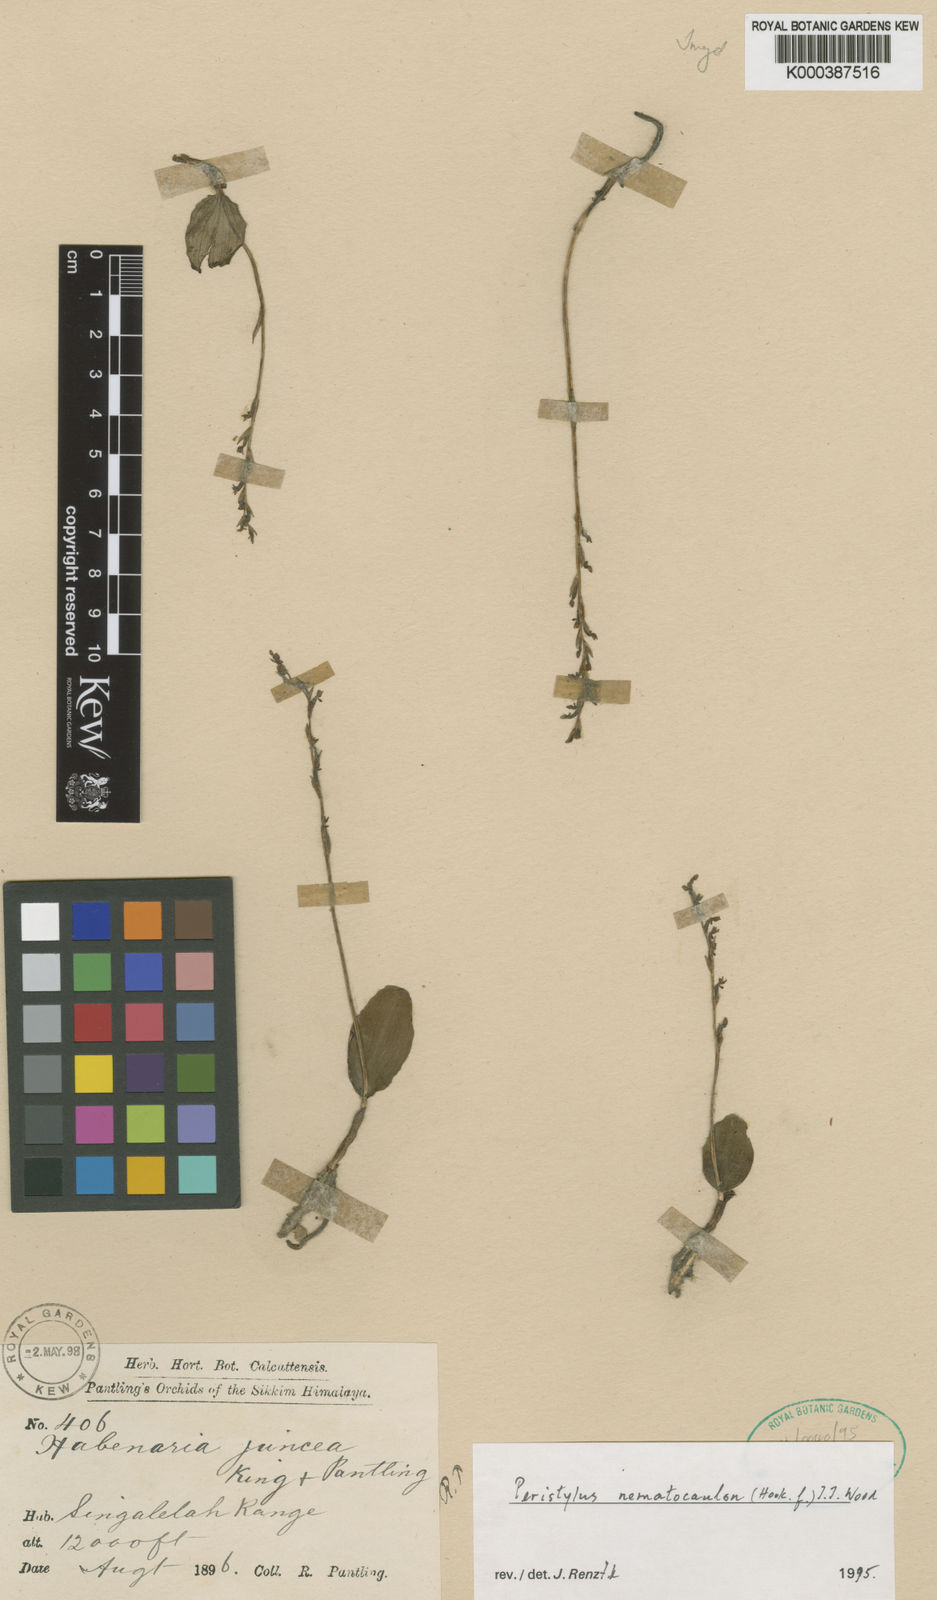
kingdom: Plantae
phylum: Tracheophyta
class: Liliopsida
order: Asparagales
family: Orchidaceae
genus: Peristylus
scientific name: Peristylus
